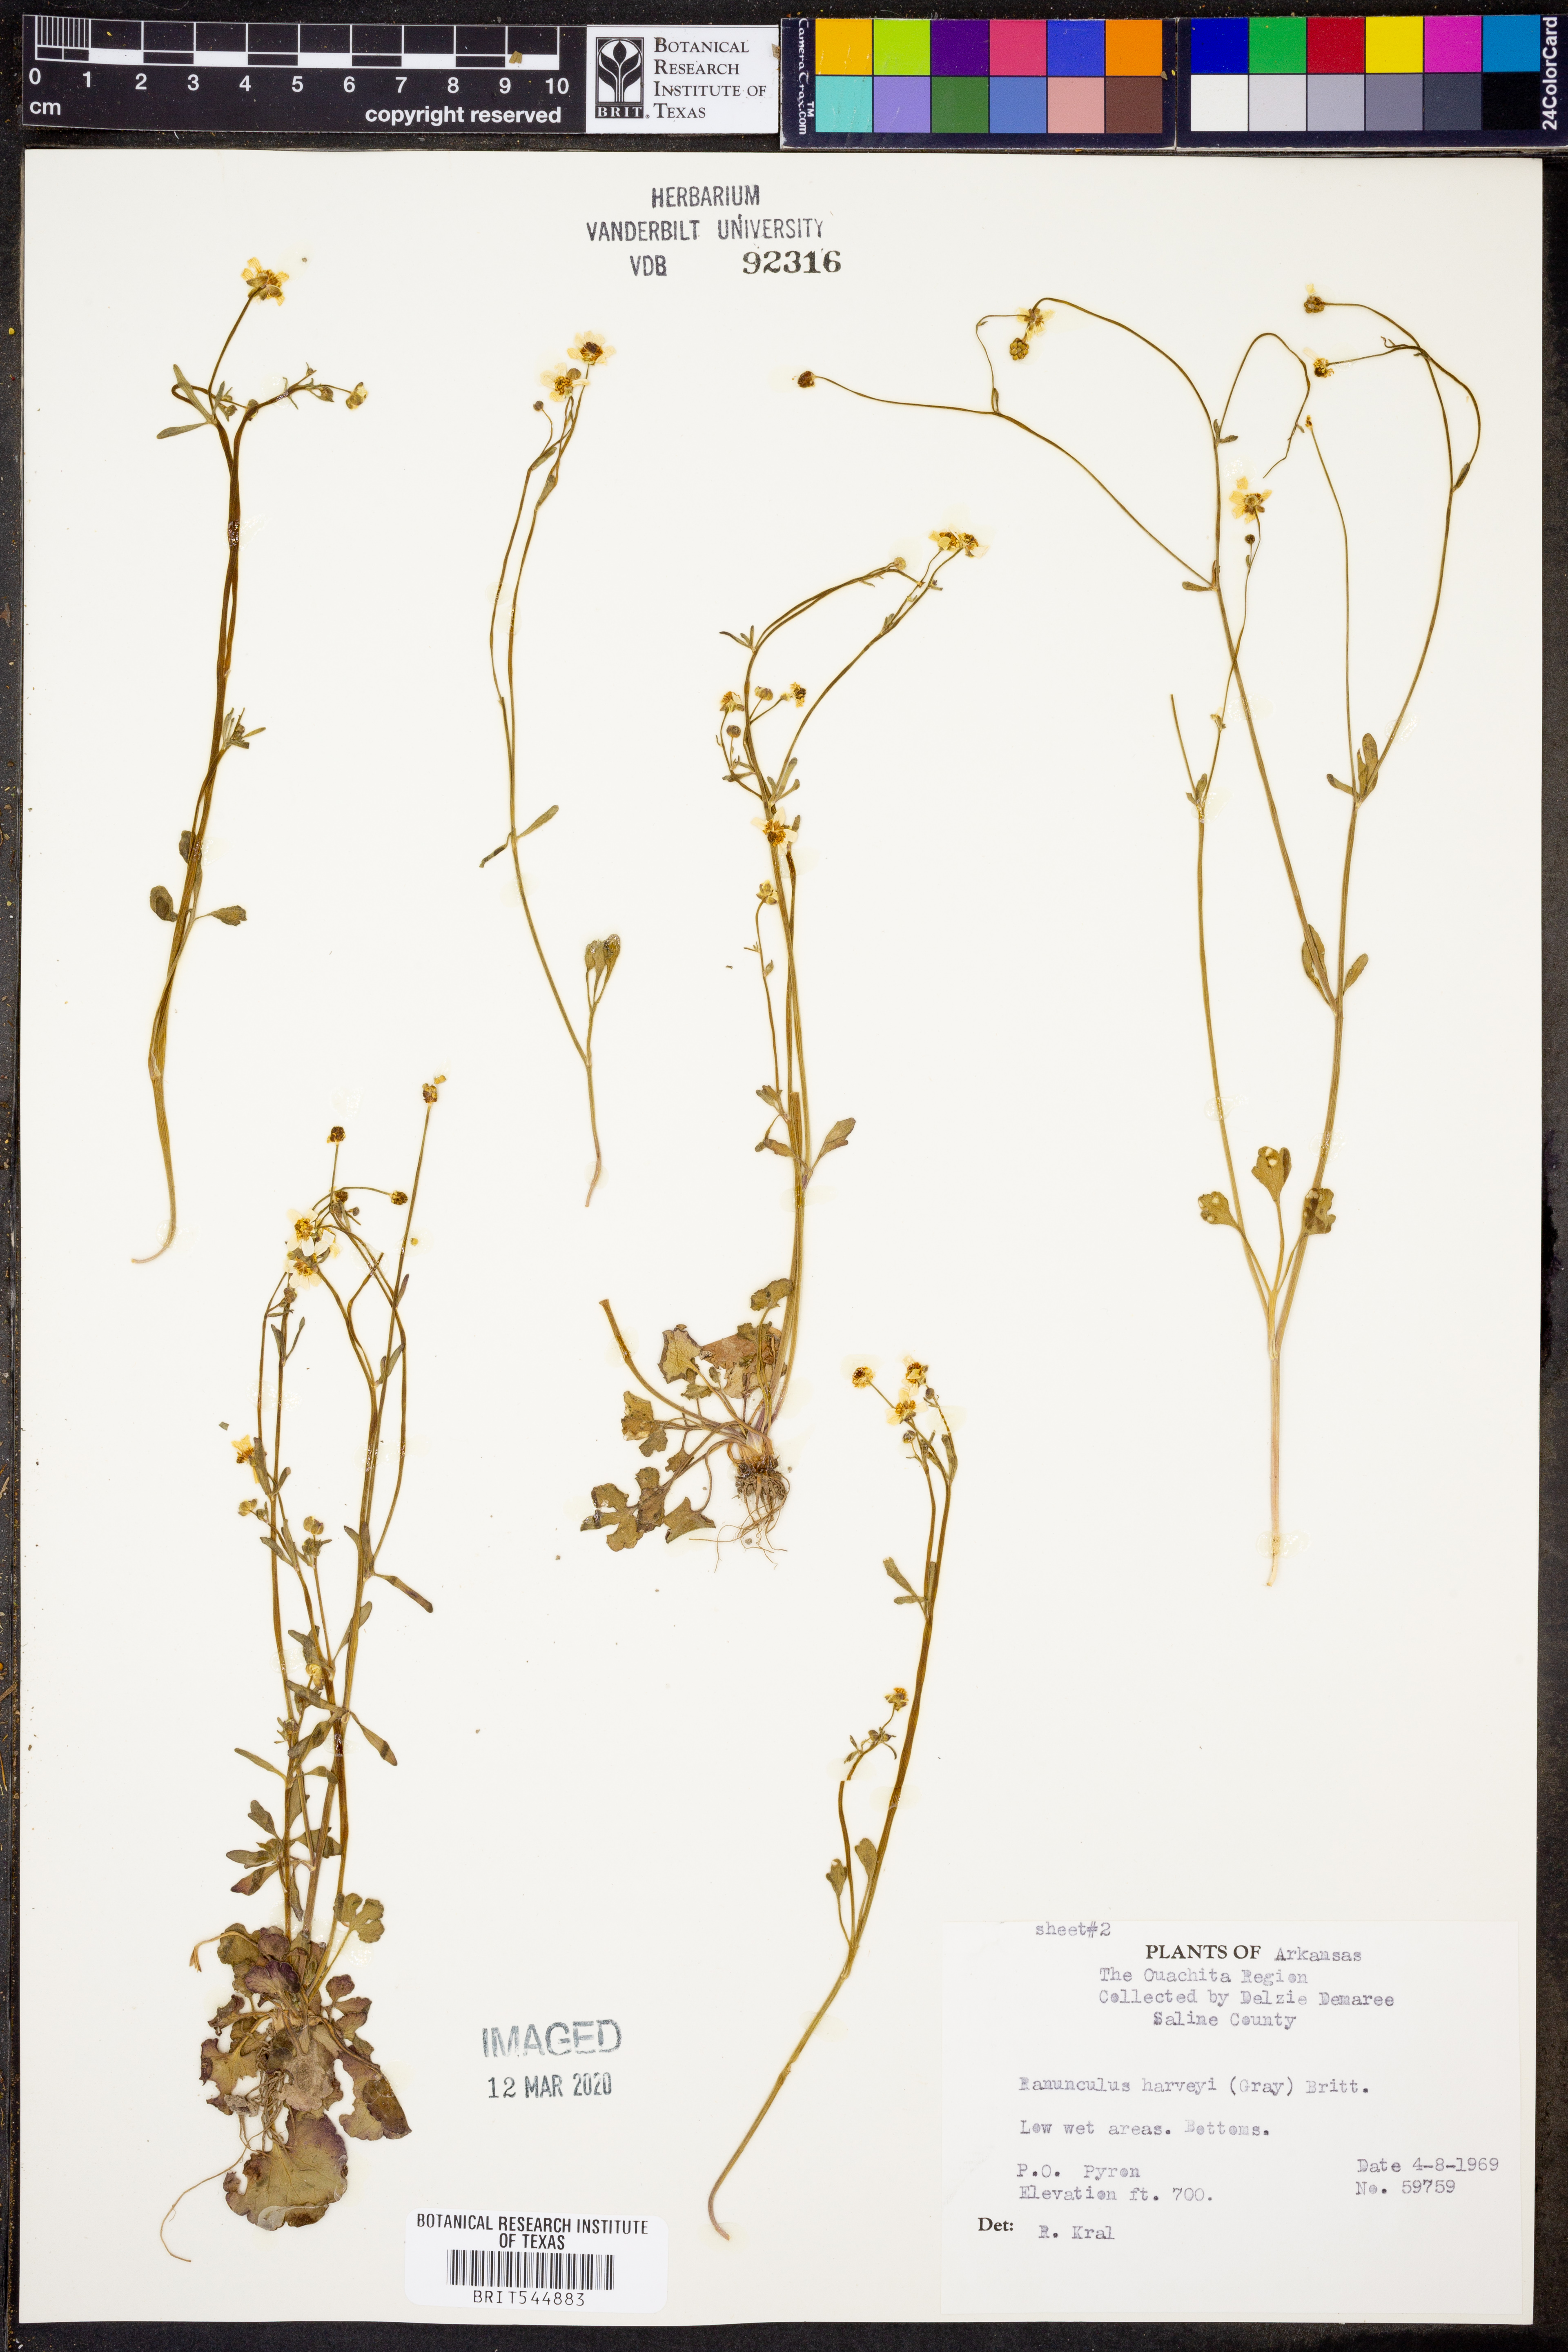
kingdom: Plantae
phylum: Tracheophyta
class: Magnoliopsida
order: Ranunculales
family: Ranunculaceae
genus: Ranunculus
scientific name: Ranunculus harveyi
